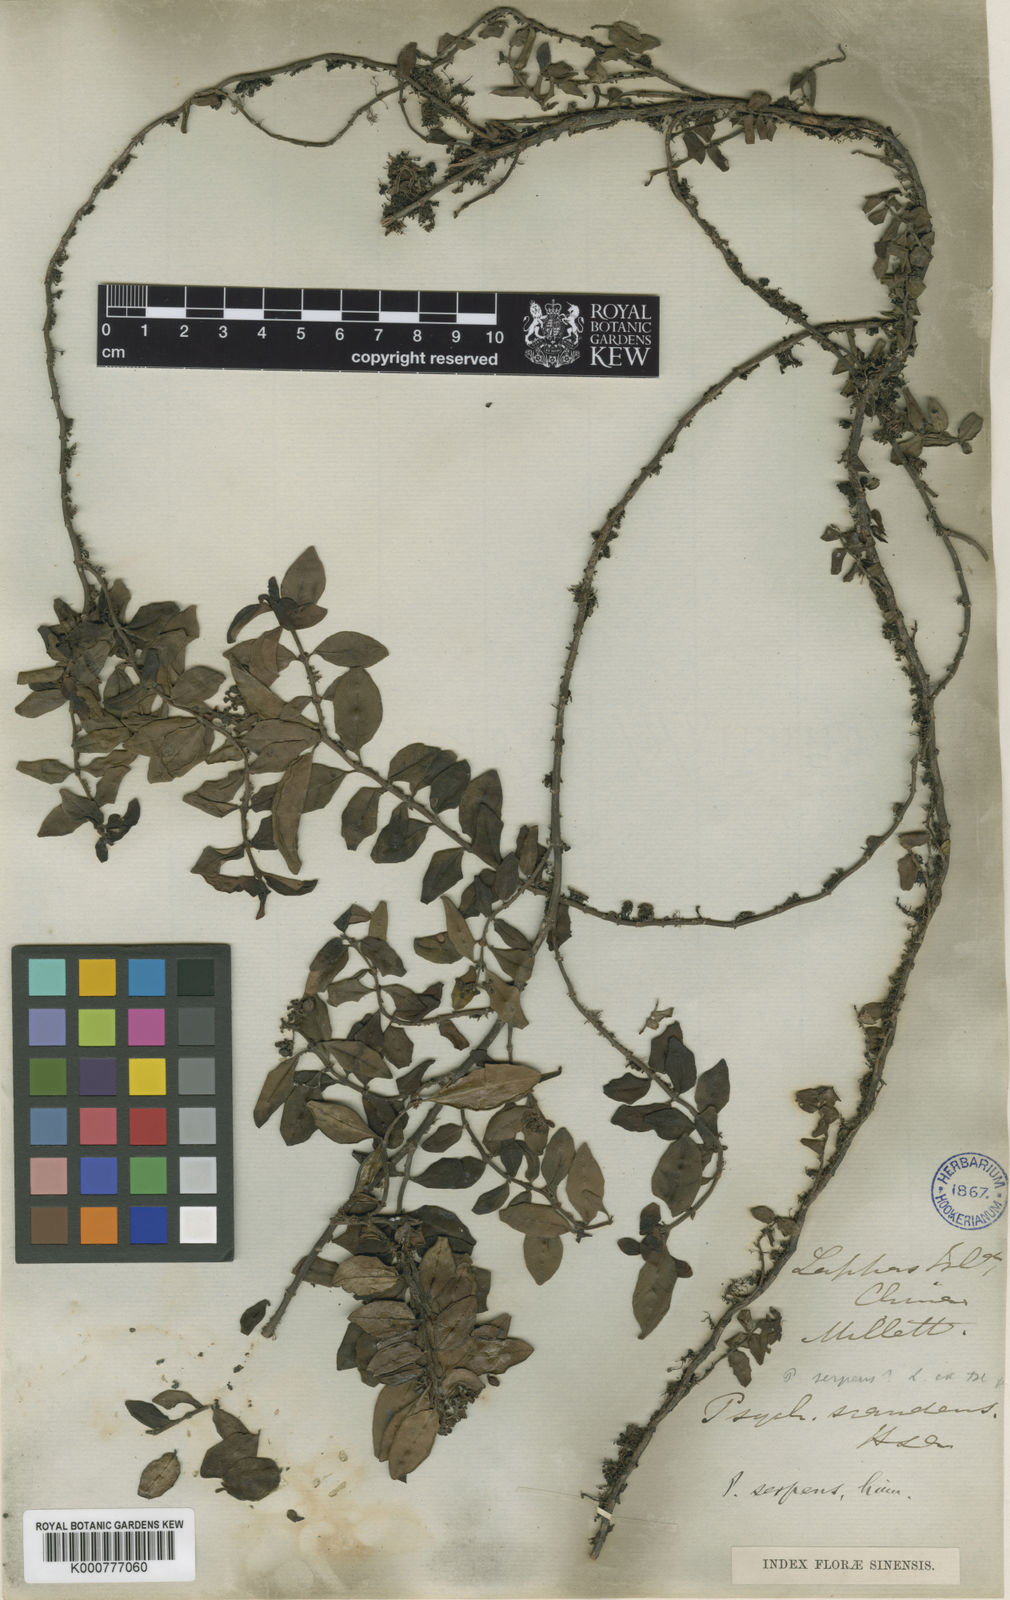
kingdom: Plantae
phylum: Tracheophyta
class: Magnoliopsida
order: Gentianales
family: Rubiaceae
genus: Psychotria
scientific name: Psychotria serpens
